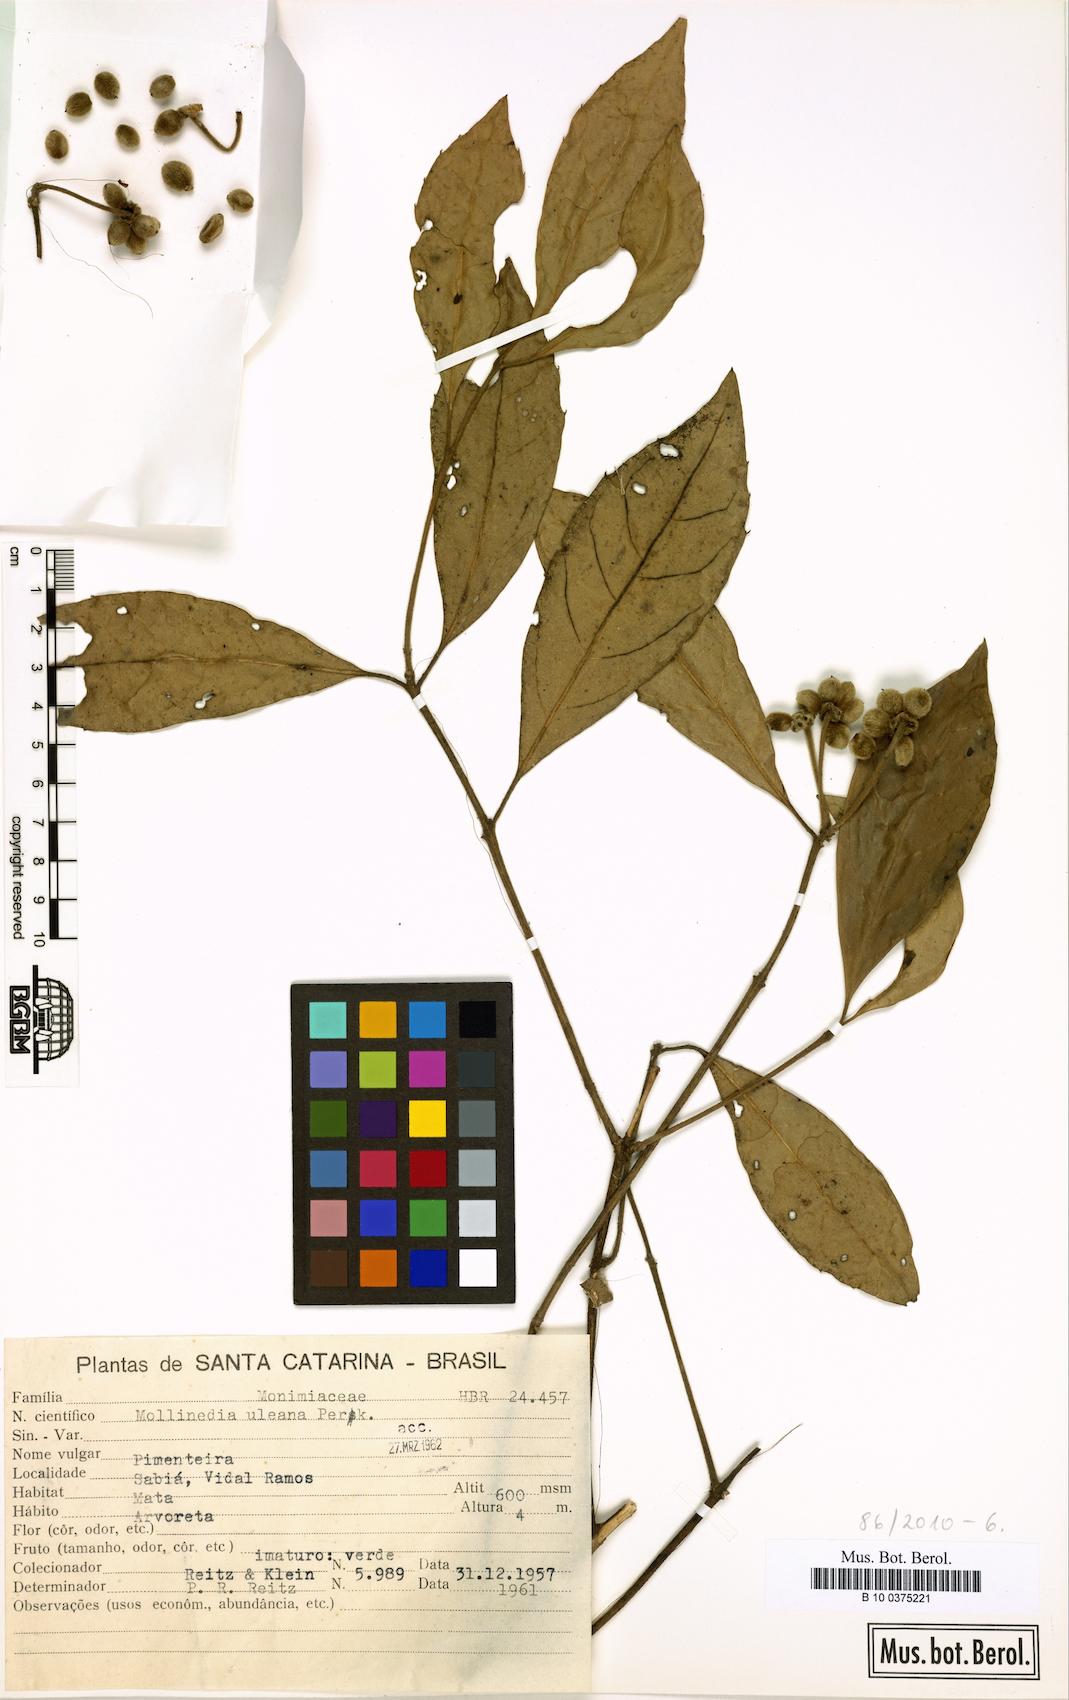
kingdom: Plantae
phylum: Tracheophyta
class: Magnoliopsida
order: Laurales
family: Monimiaceae
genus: Mollinedia
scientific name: Mollinedia uleana
